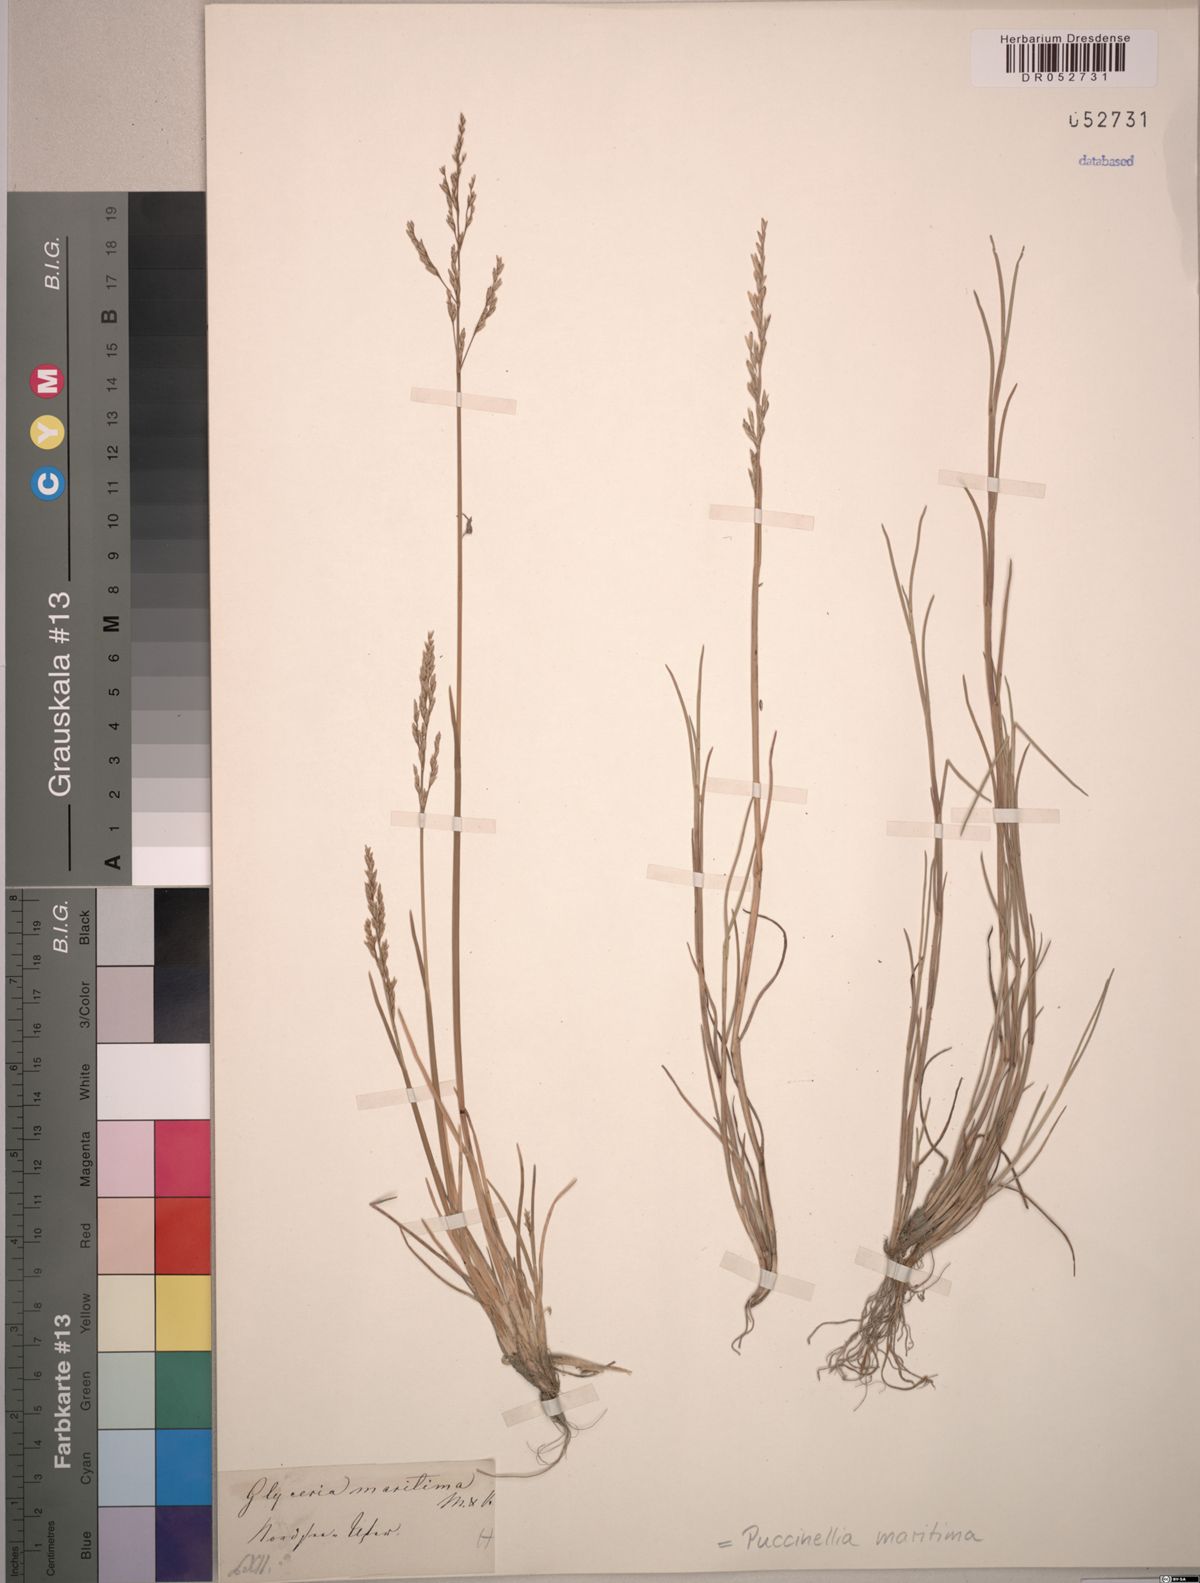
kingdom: Plantae
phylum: Tracheophyta
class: Liliopsida
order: Poales
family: Poaceae
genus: Puccinellia
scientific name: Puccinellia maritima
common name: Common saltmarsh grass
